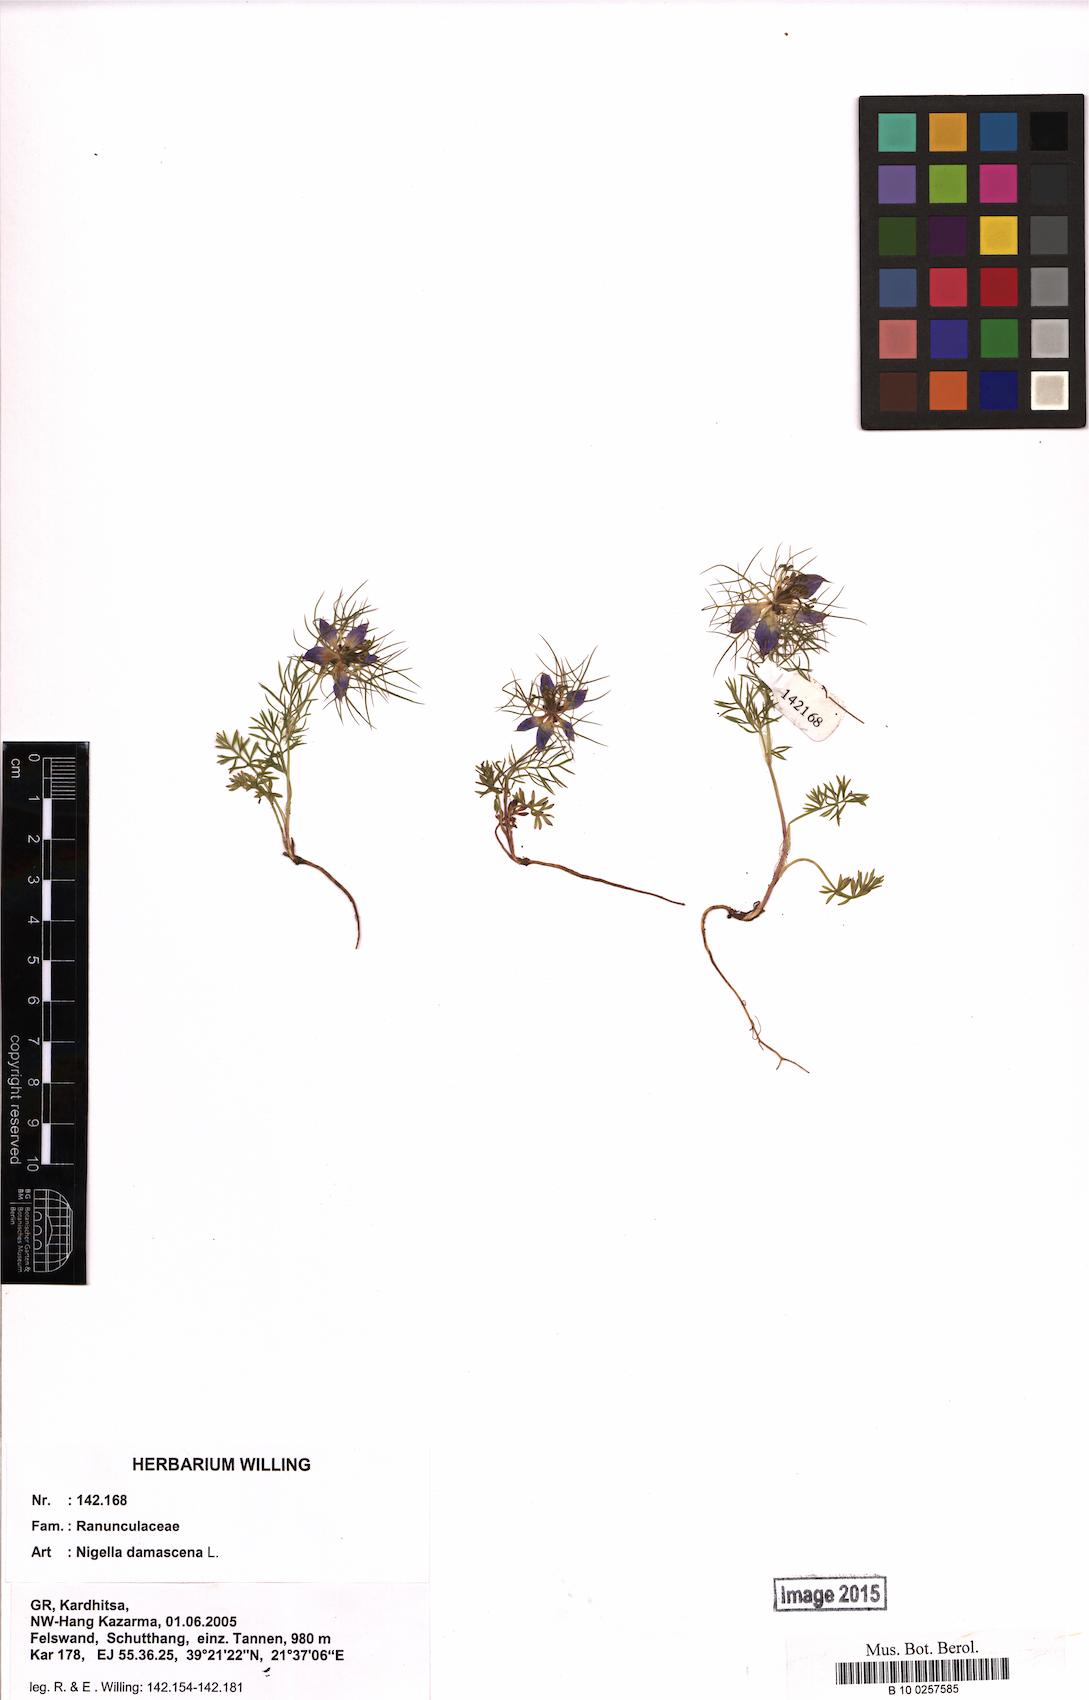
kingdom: Plantae
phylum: Tracheophyta
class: Magnoliopsida
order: Ranunculales
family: Ranunculaceae
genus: Nigella
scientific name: Nigella damascena
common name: Love-in-a-mist
